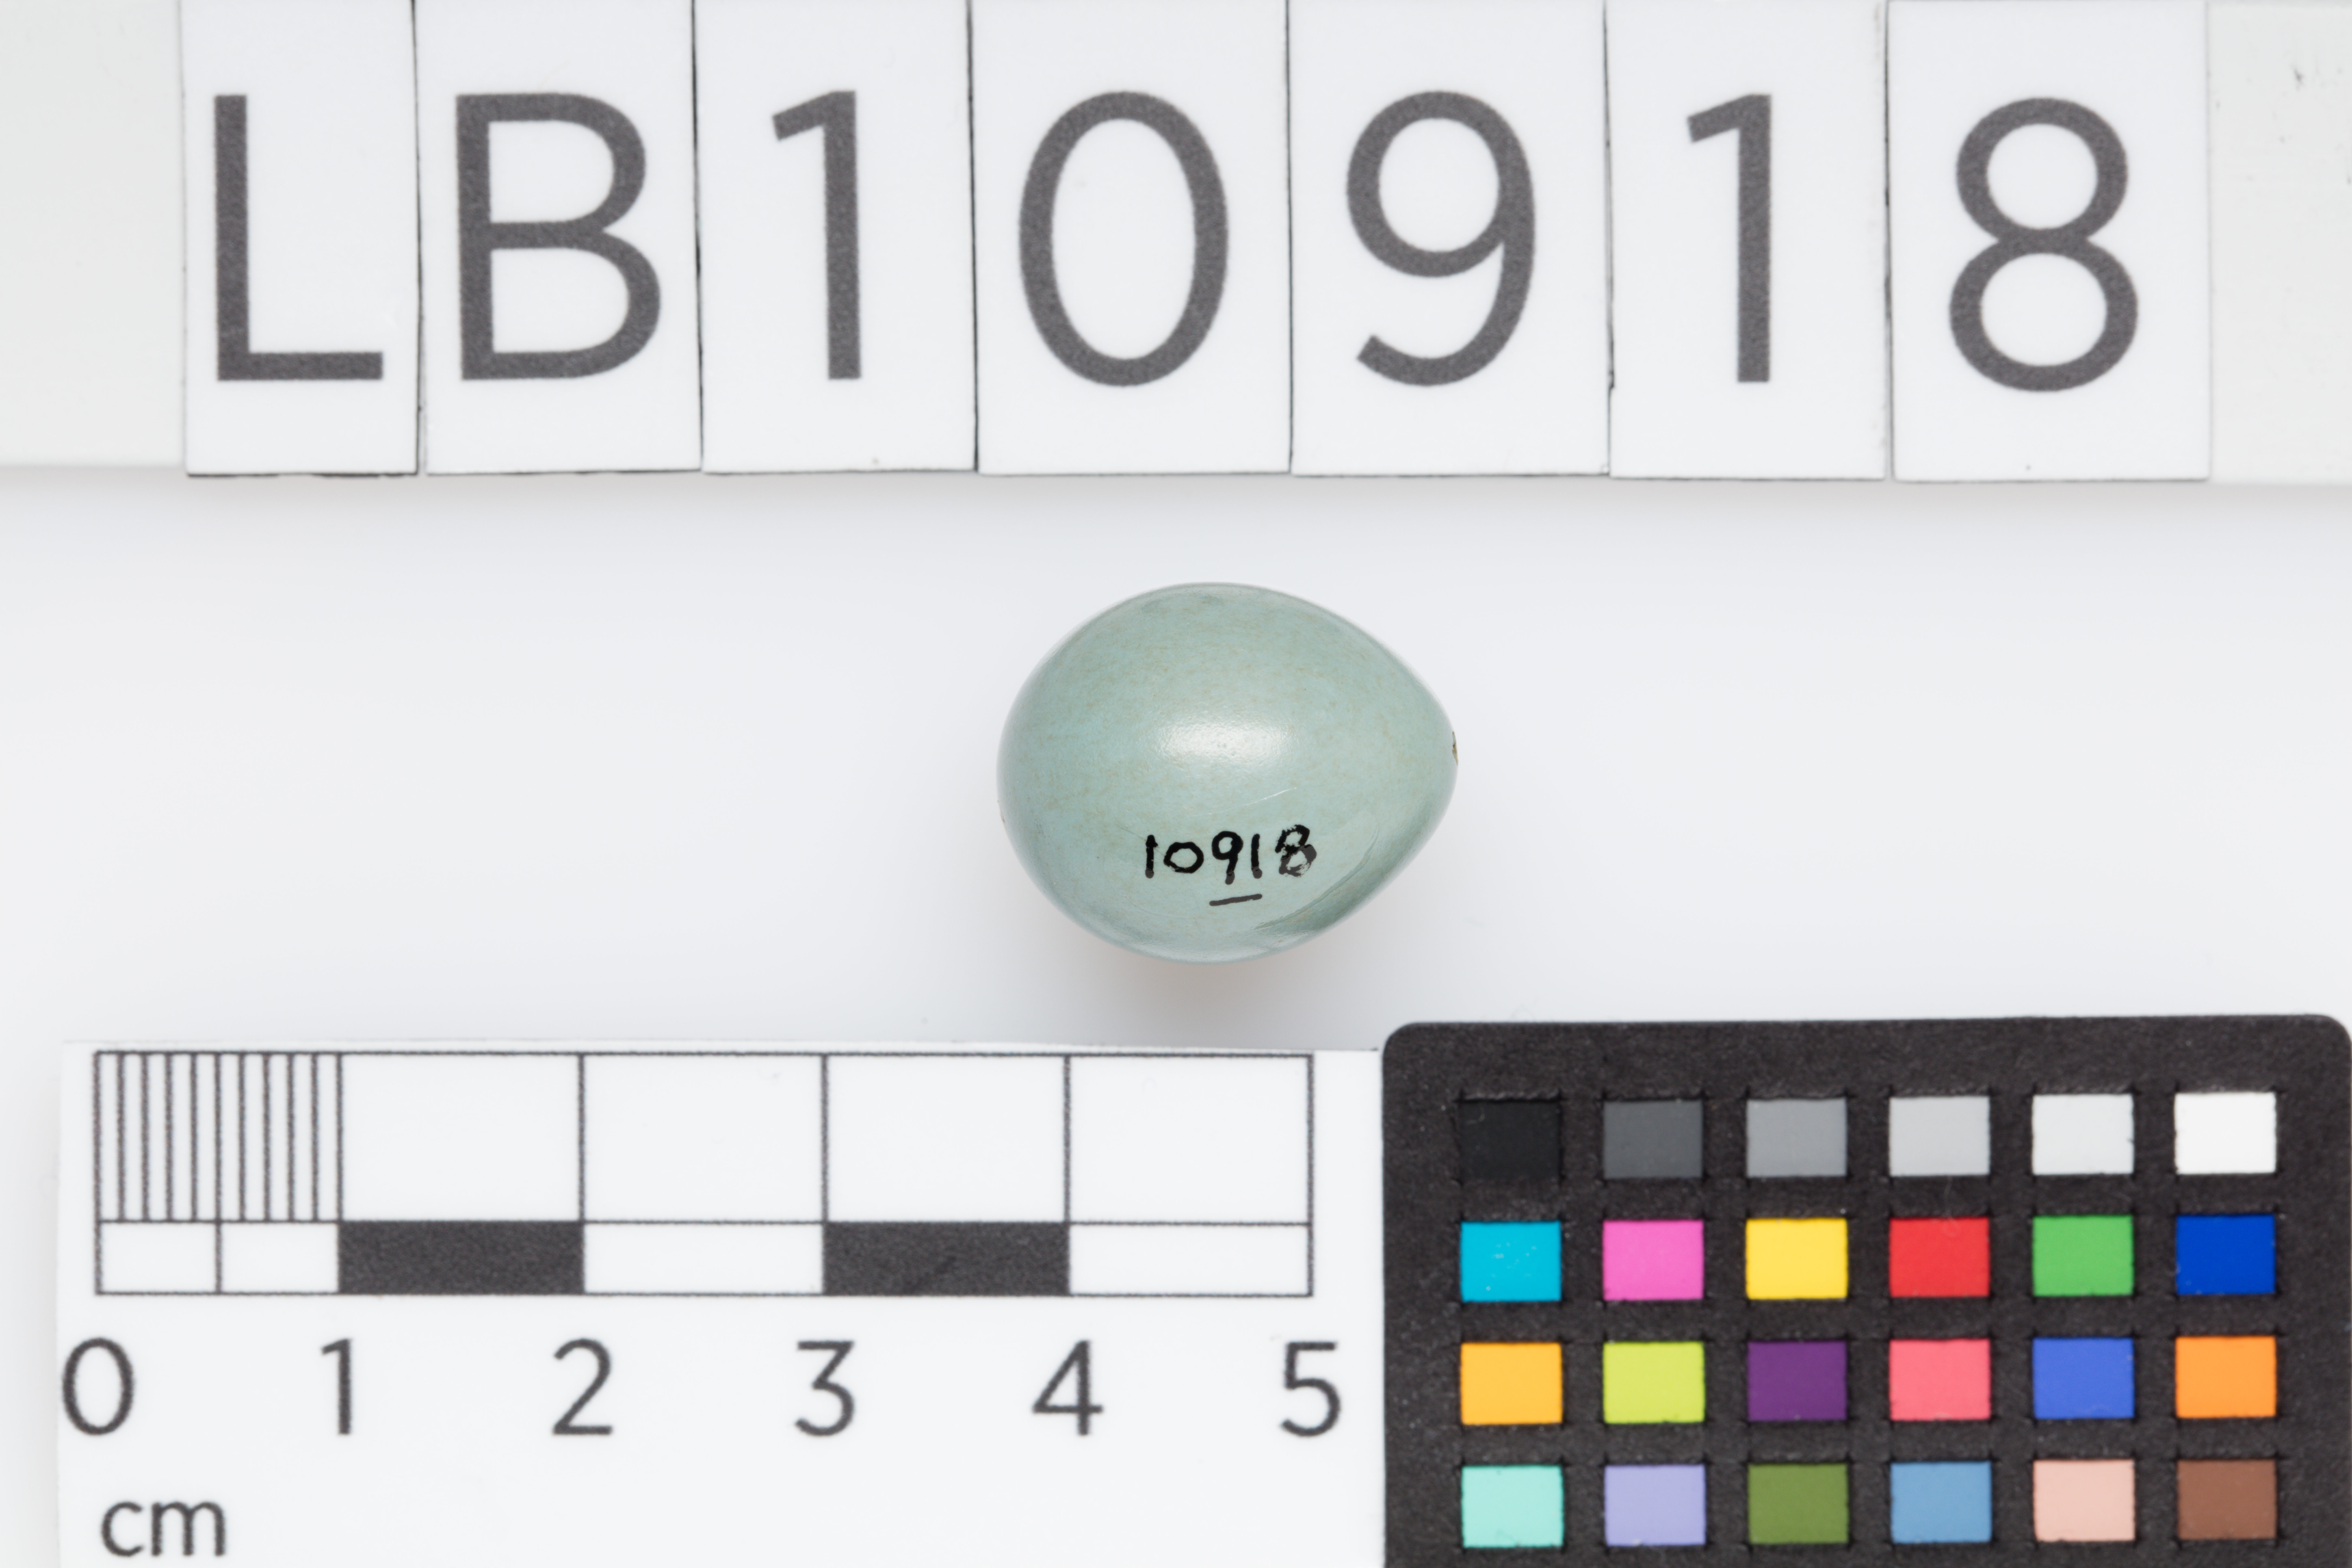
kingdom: Animalia
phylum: Chordata
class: Aves
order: Passeriformes
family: Prunellidae
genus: Prunella
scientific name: Prunella modularis
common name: Dunnock
